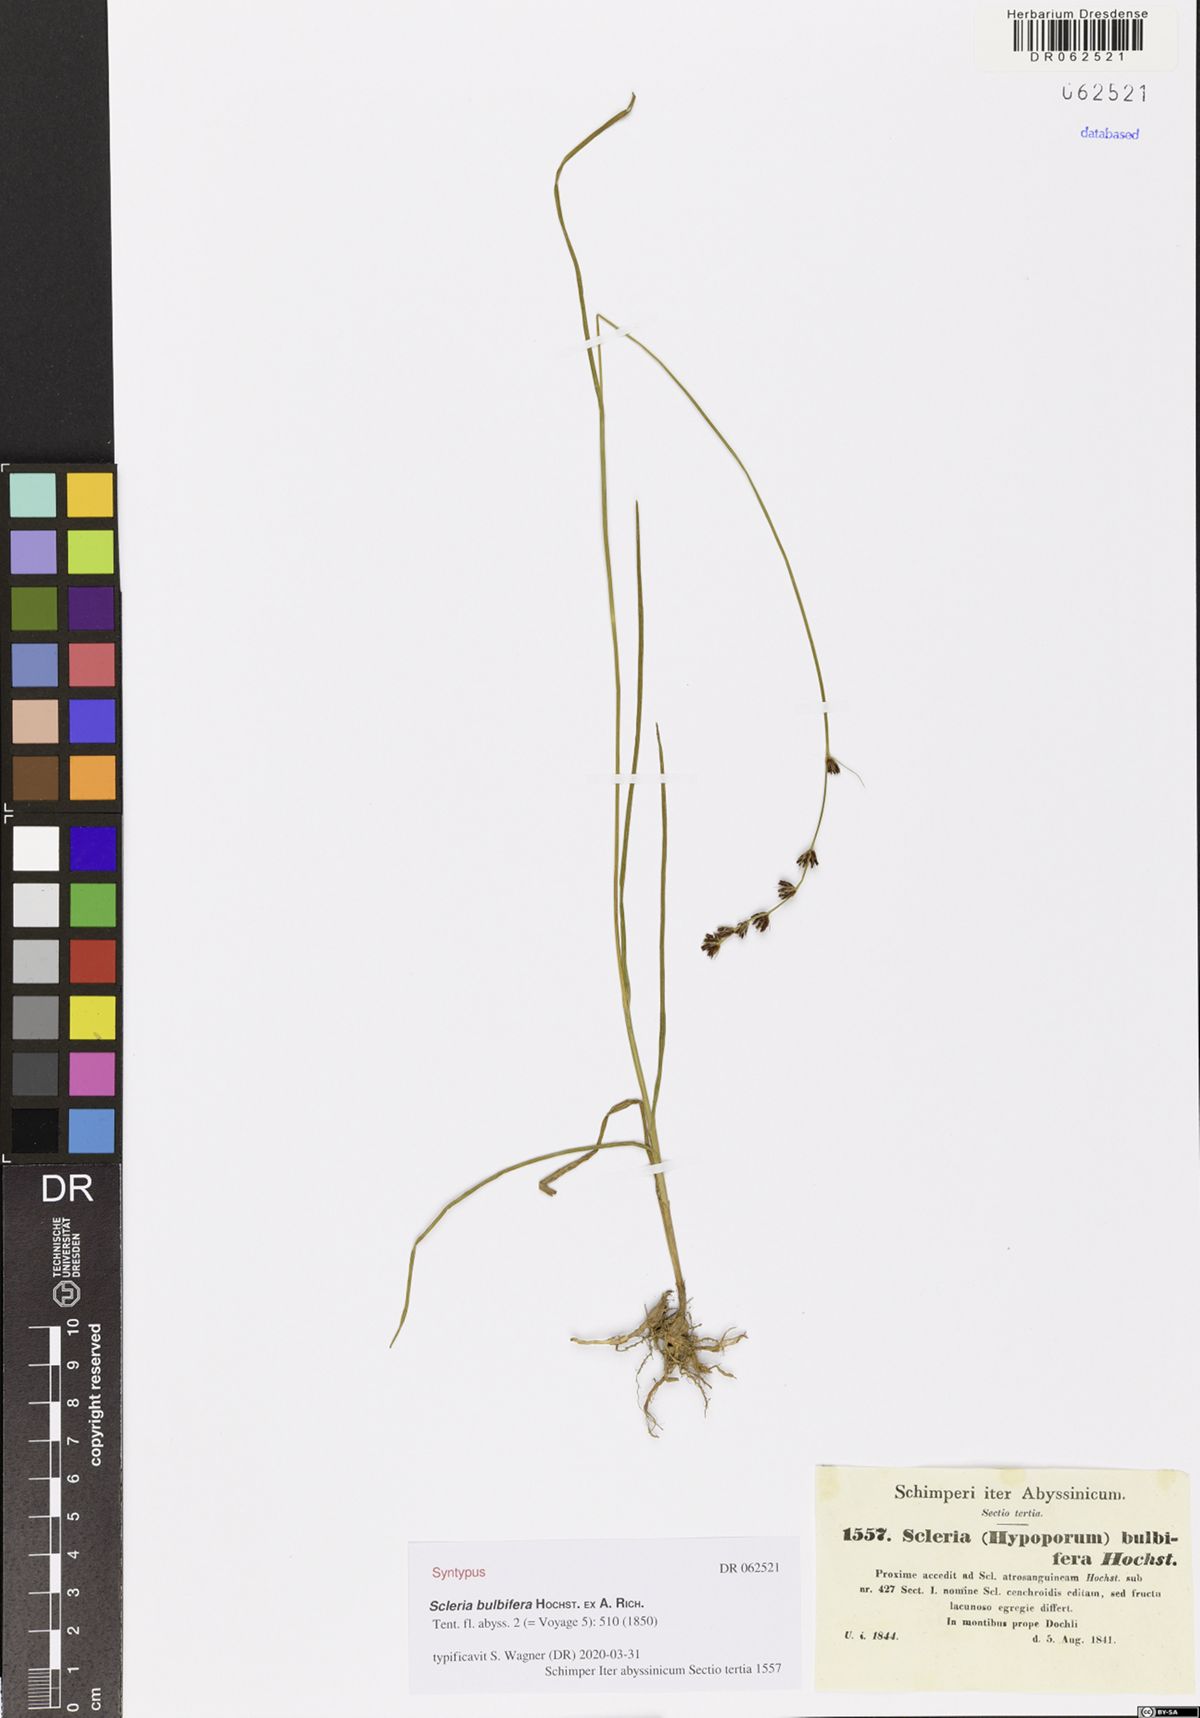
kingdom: Plantae
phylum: Tracheophyta
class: Liliopsida
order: Poales
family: Cyperaceae
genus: Scleria
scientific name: Scleria bulbifera
